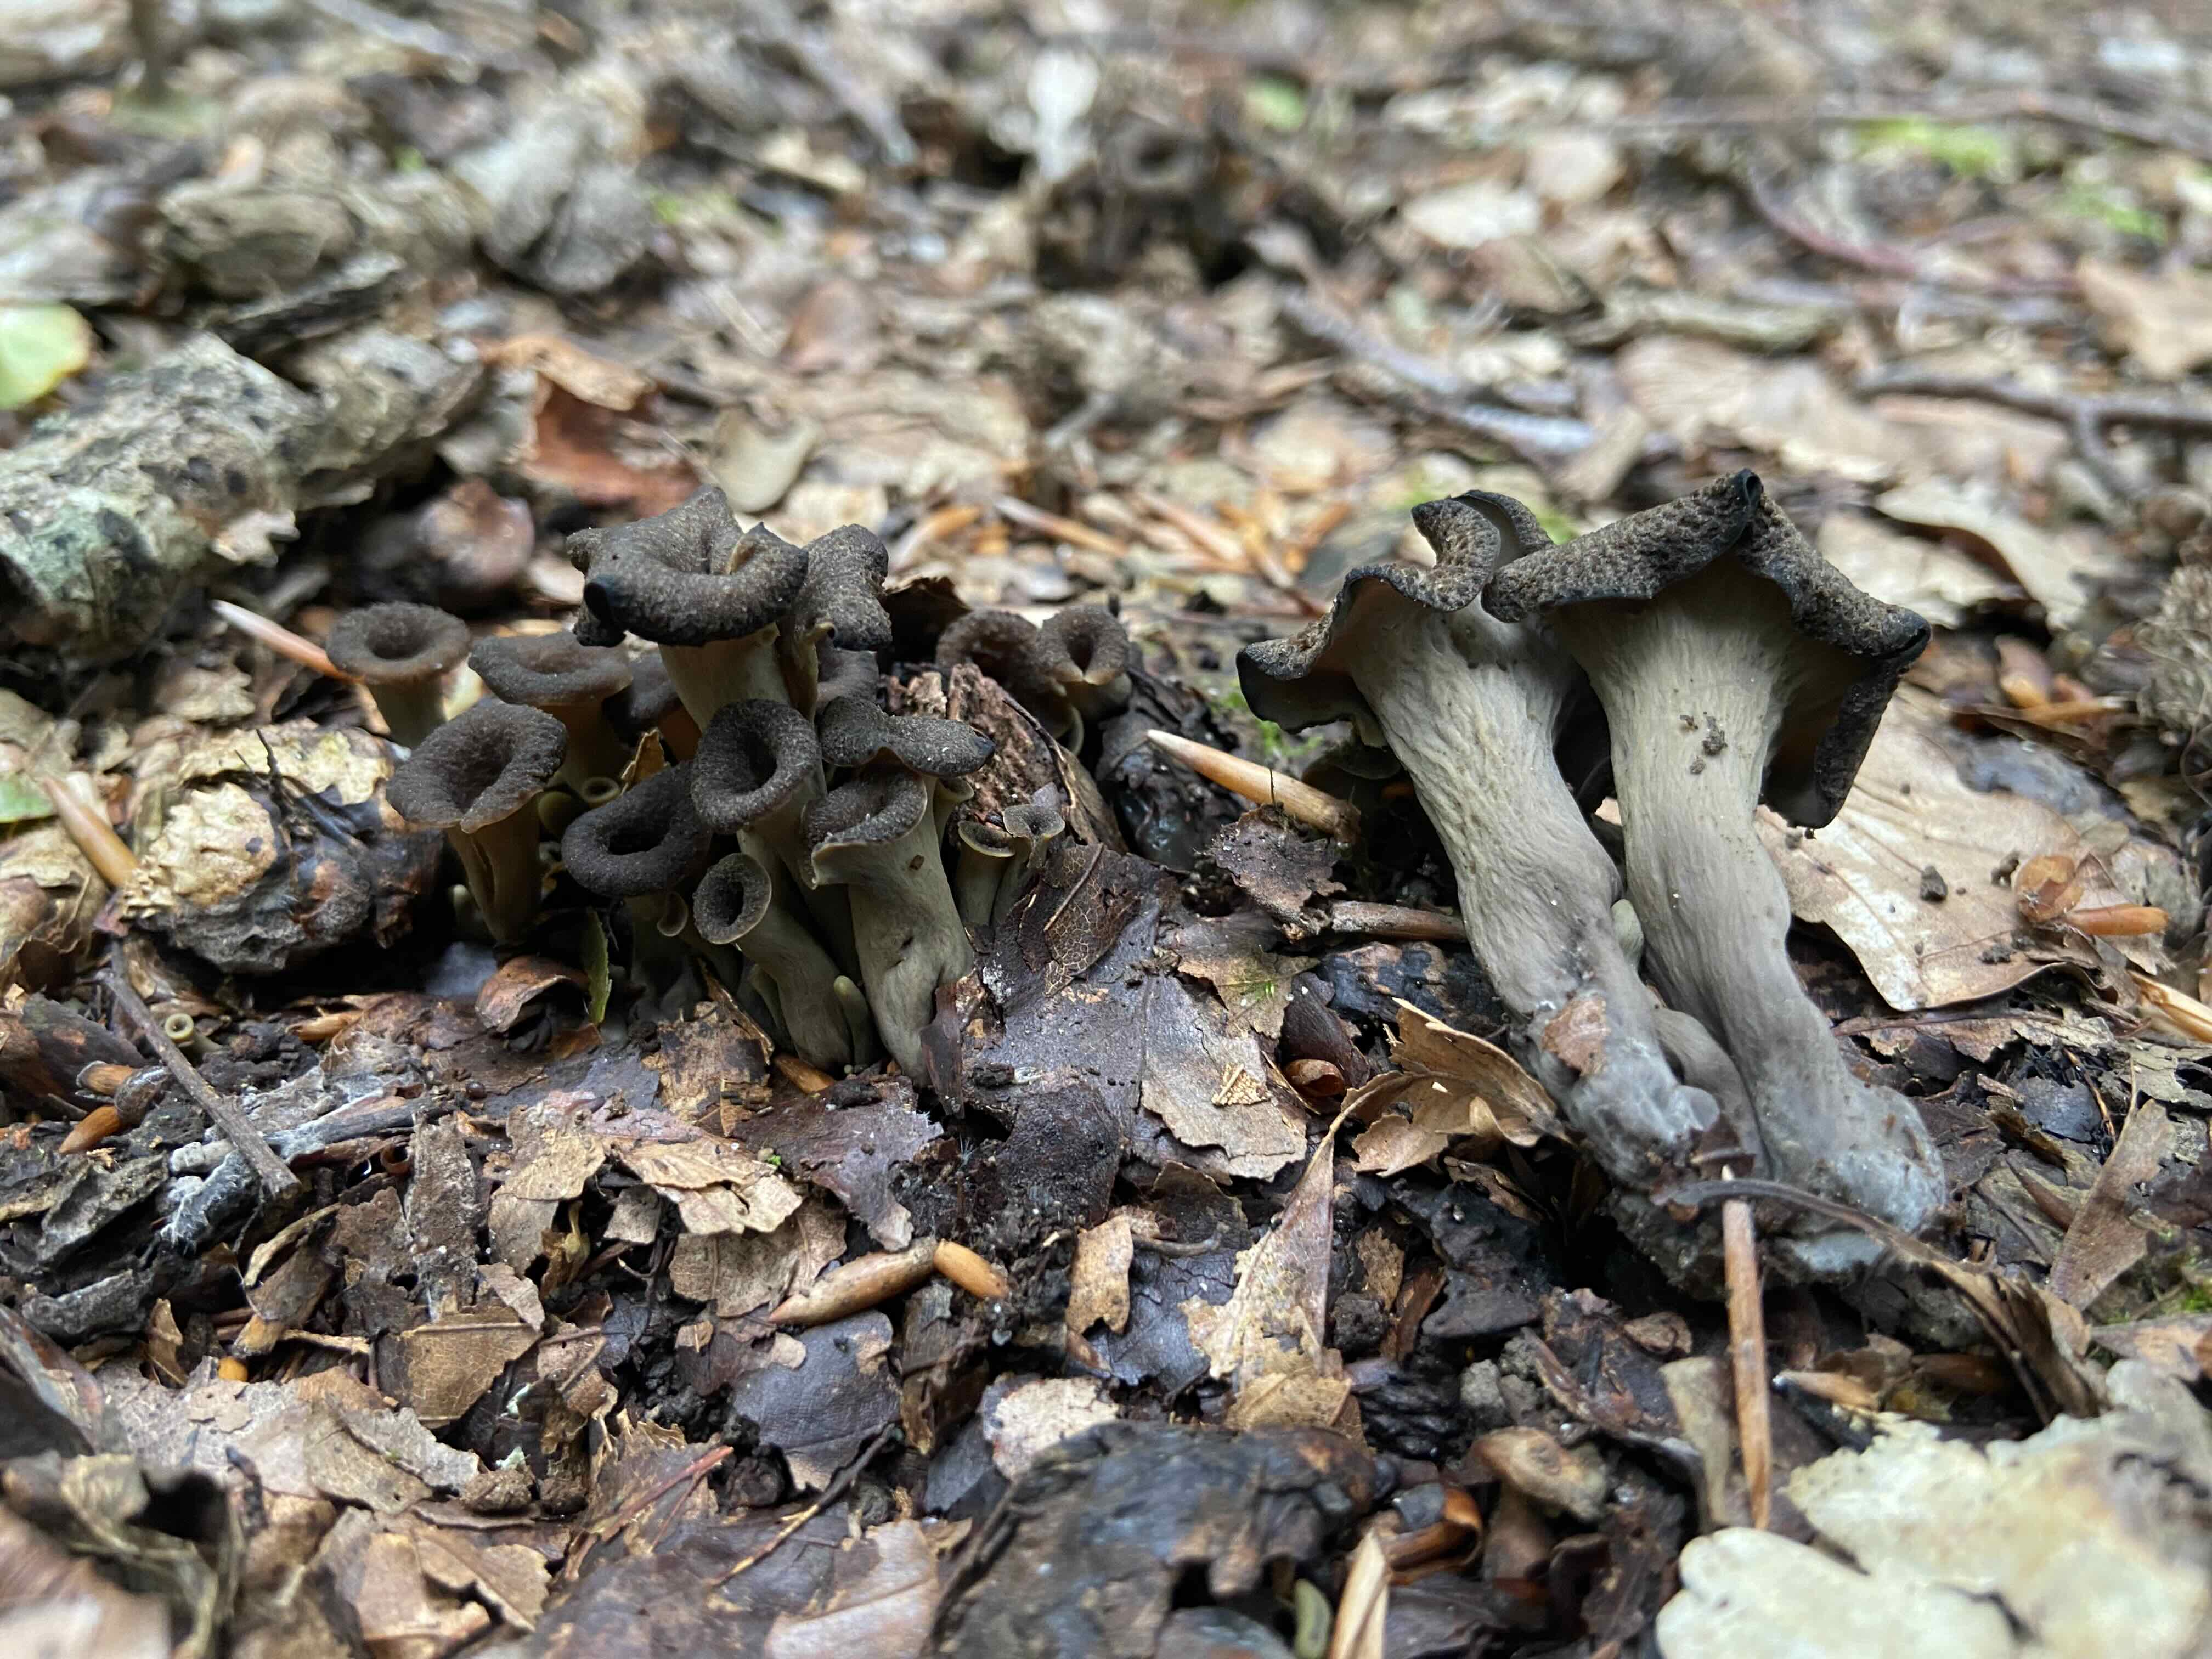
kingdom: Fungi
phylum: Basidiomycota
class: Agaricomycetes
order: Cantharellales
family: Hydnaceae
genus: Craterellus
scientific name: Craterellus cornucopioides
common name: trompetsvamp
